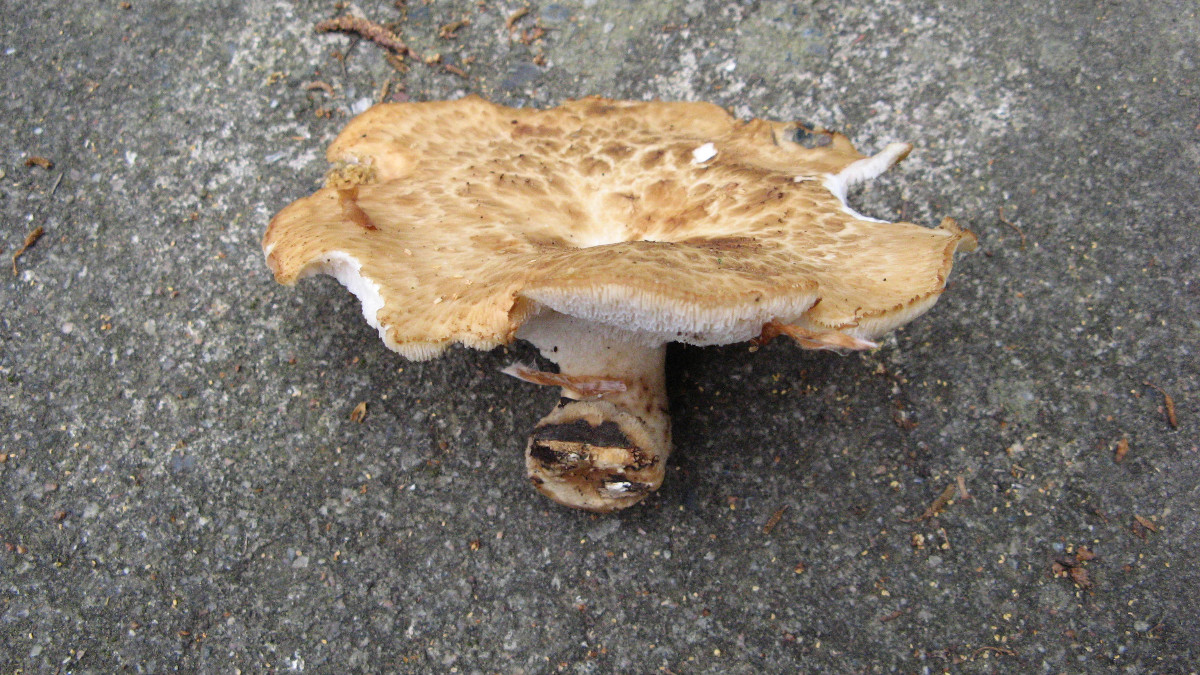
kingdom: Fungi
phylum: Basidiomycota
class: Agaricomycetes
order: Polyporales
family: Polyporaceae
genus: Polyporus
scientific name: Polyporus tuberaster
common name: knoldet stilkporesvamp
